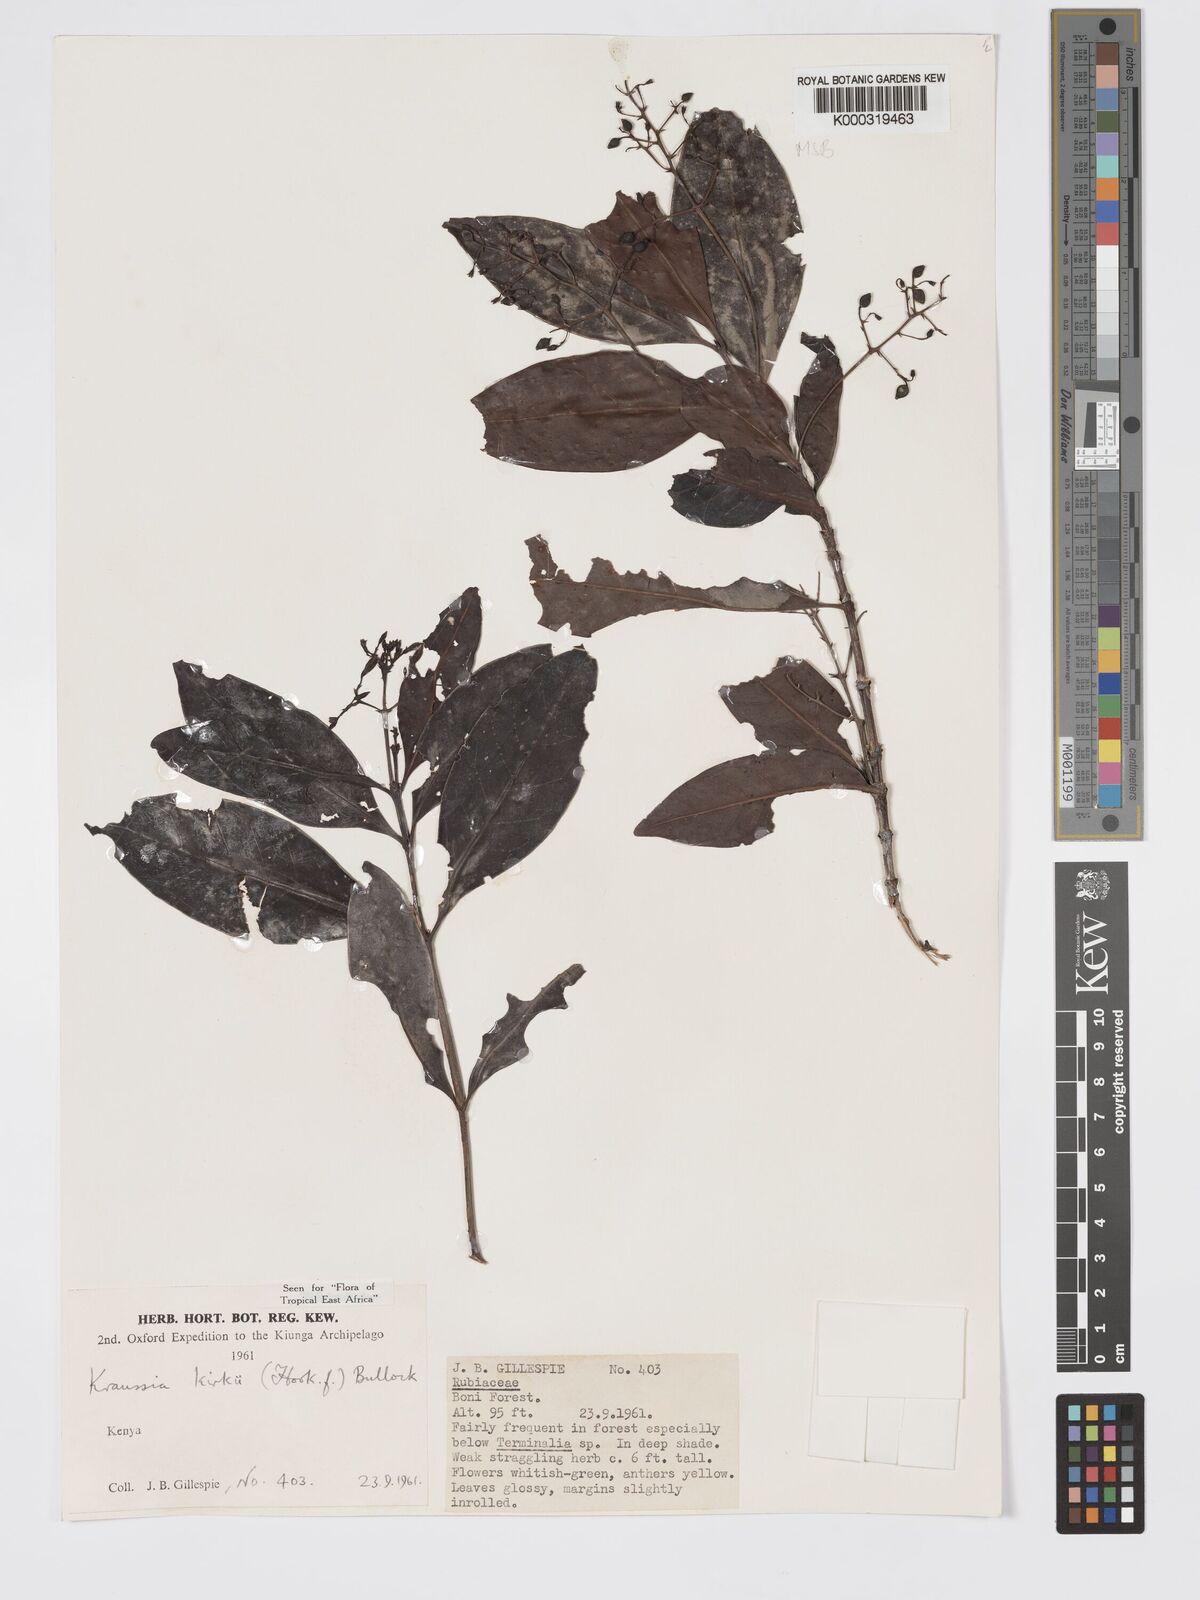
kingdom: Plantae
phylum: Tracheophyta
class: Magnoliopsida
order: Gentianales
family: Rubiaceae
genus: Kraussia
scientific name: Kraussia kirkii
